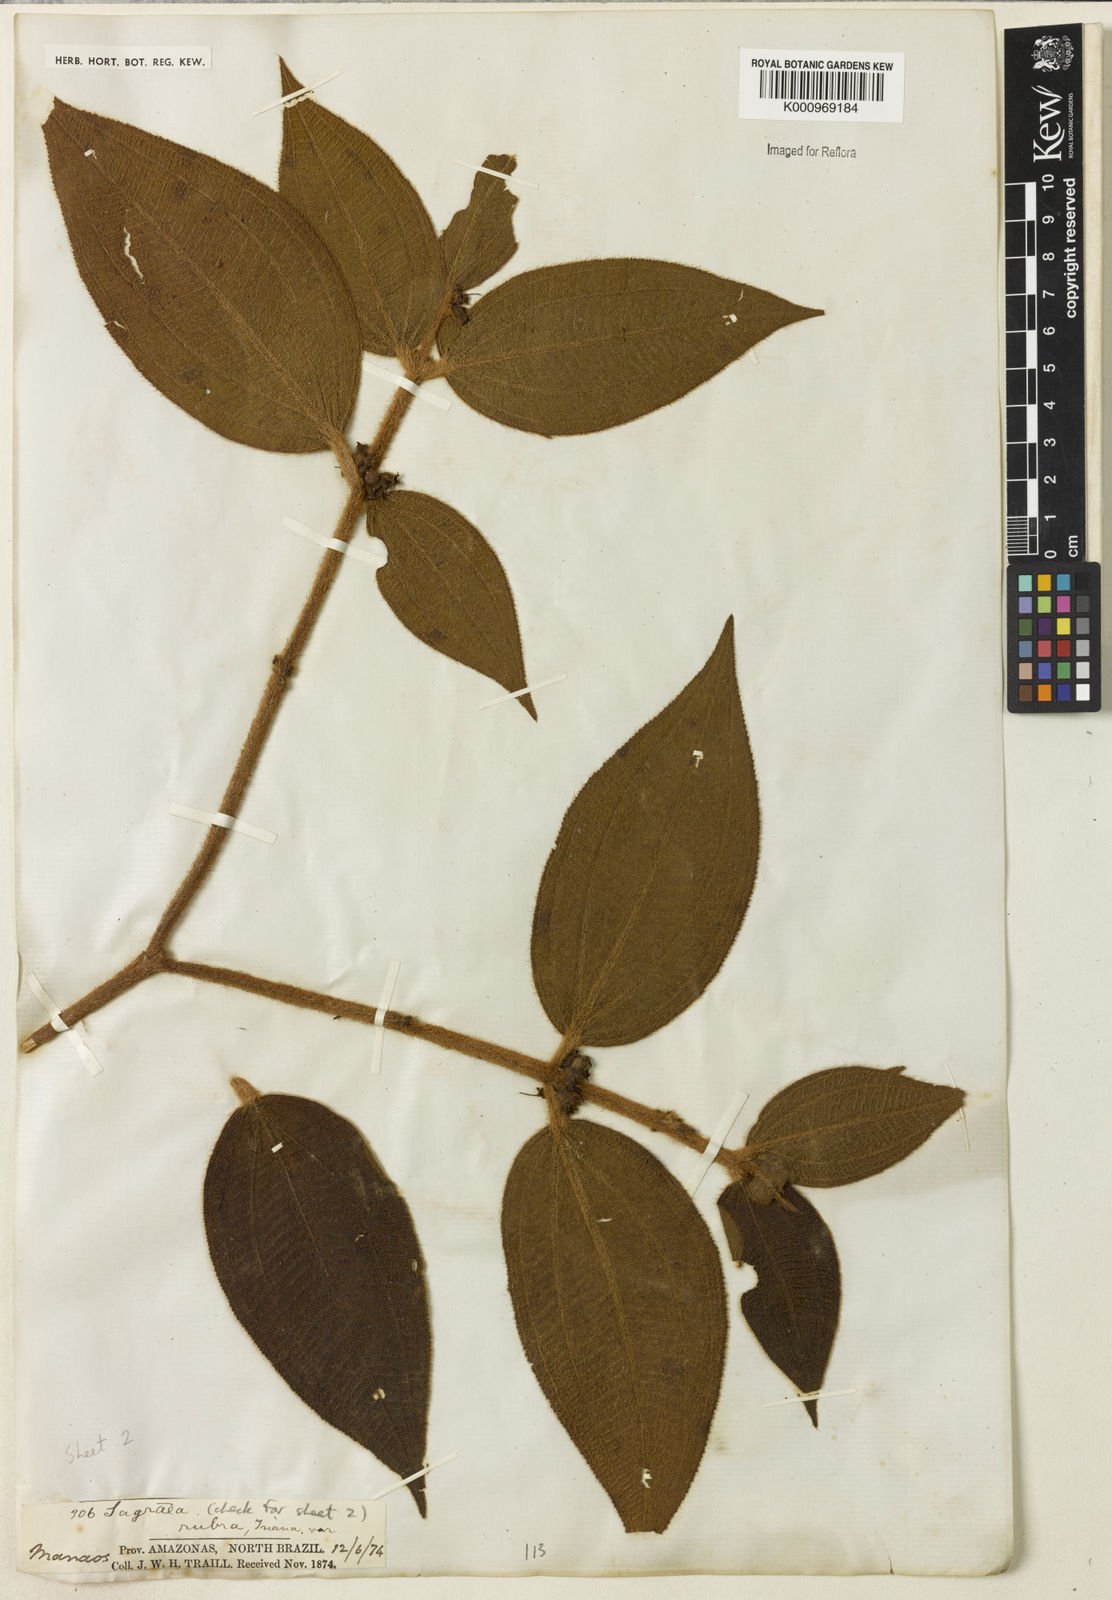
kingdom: Plantae
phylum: Tracheophyta
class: Magnoliopsida
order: Myrtales
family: Melastomataceae
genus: Miconia
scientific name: Miconia rubra
